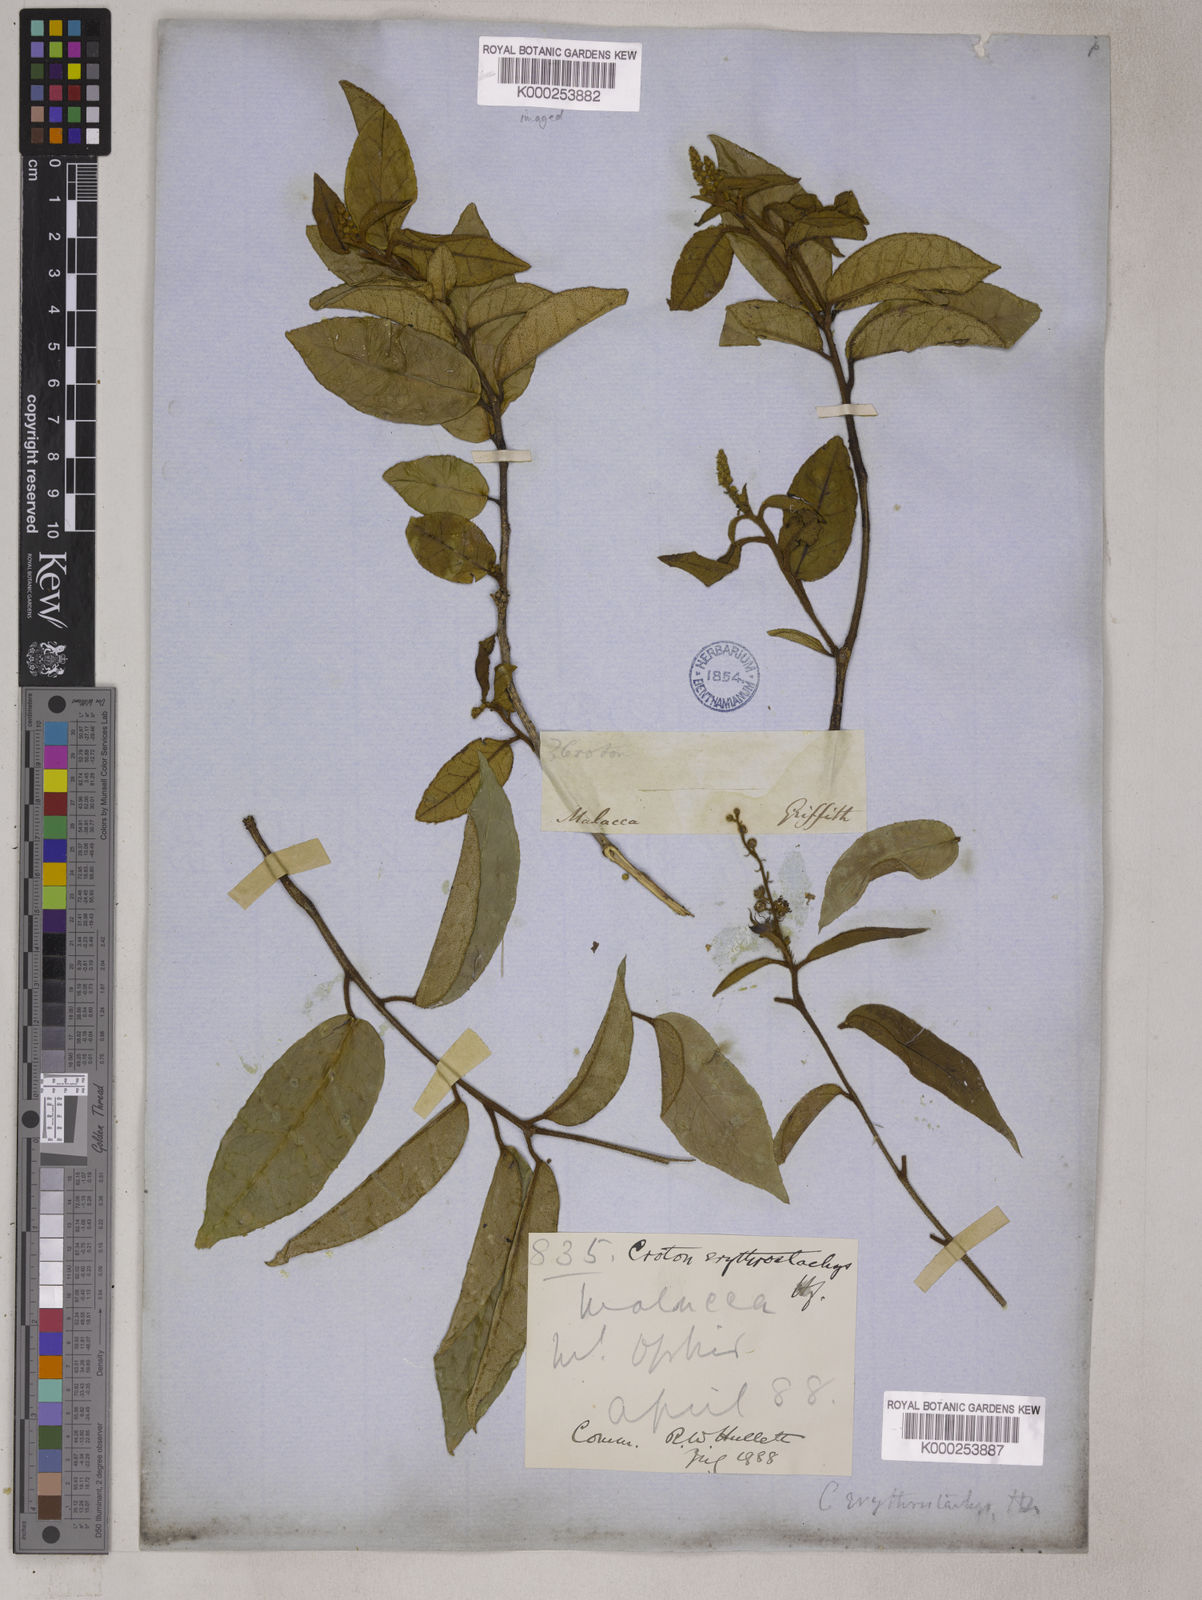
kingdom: Plantae
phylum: Tracheophyta
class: Magnoliopsida
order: Malpighiales
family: Euphorbiaceae
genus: Croton
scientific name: Croton erythrostachys
